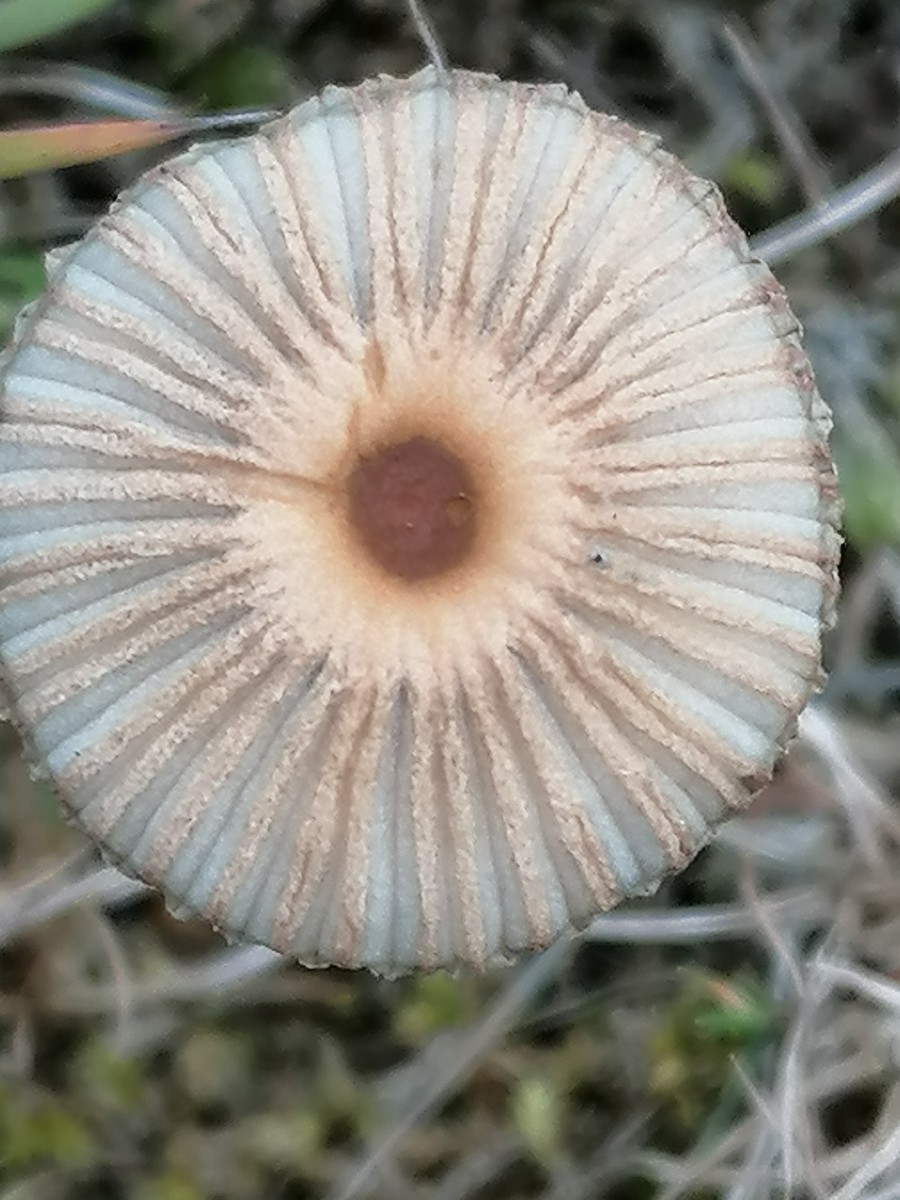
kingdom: Fungi
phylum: Basidiomycota
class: Agaricomycetes
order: Agaricales
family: Psathyrellaceae
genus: Parasola
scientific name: Parasola
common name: hjulhat
